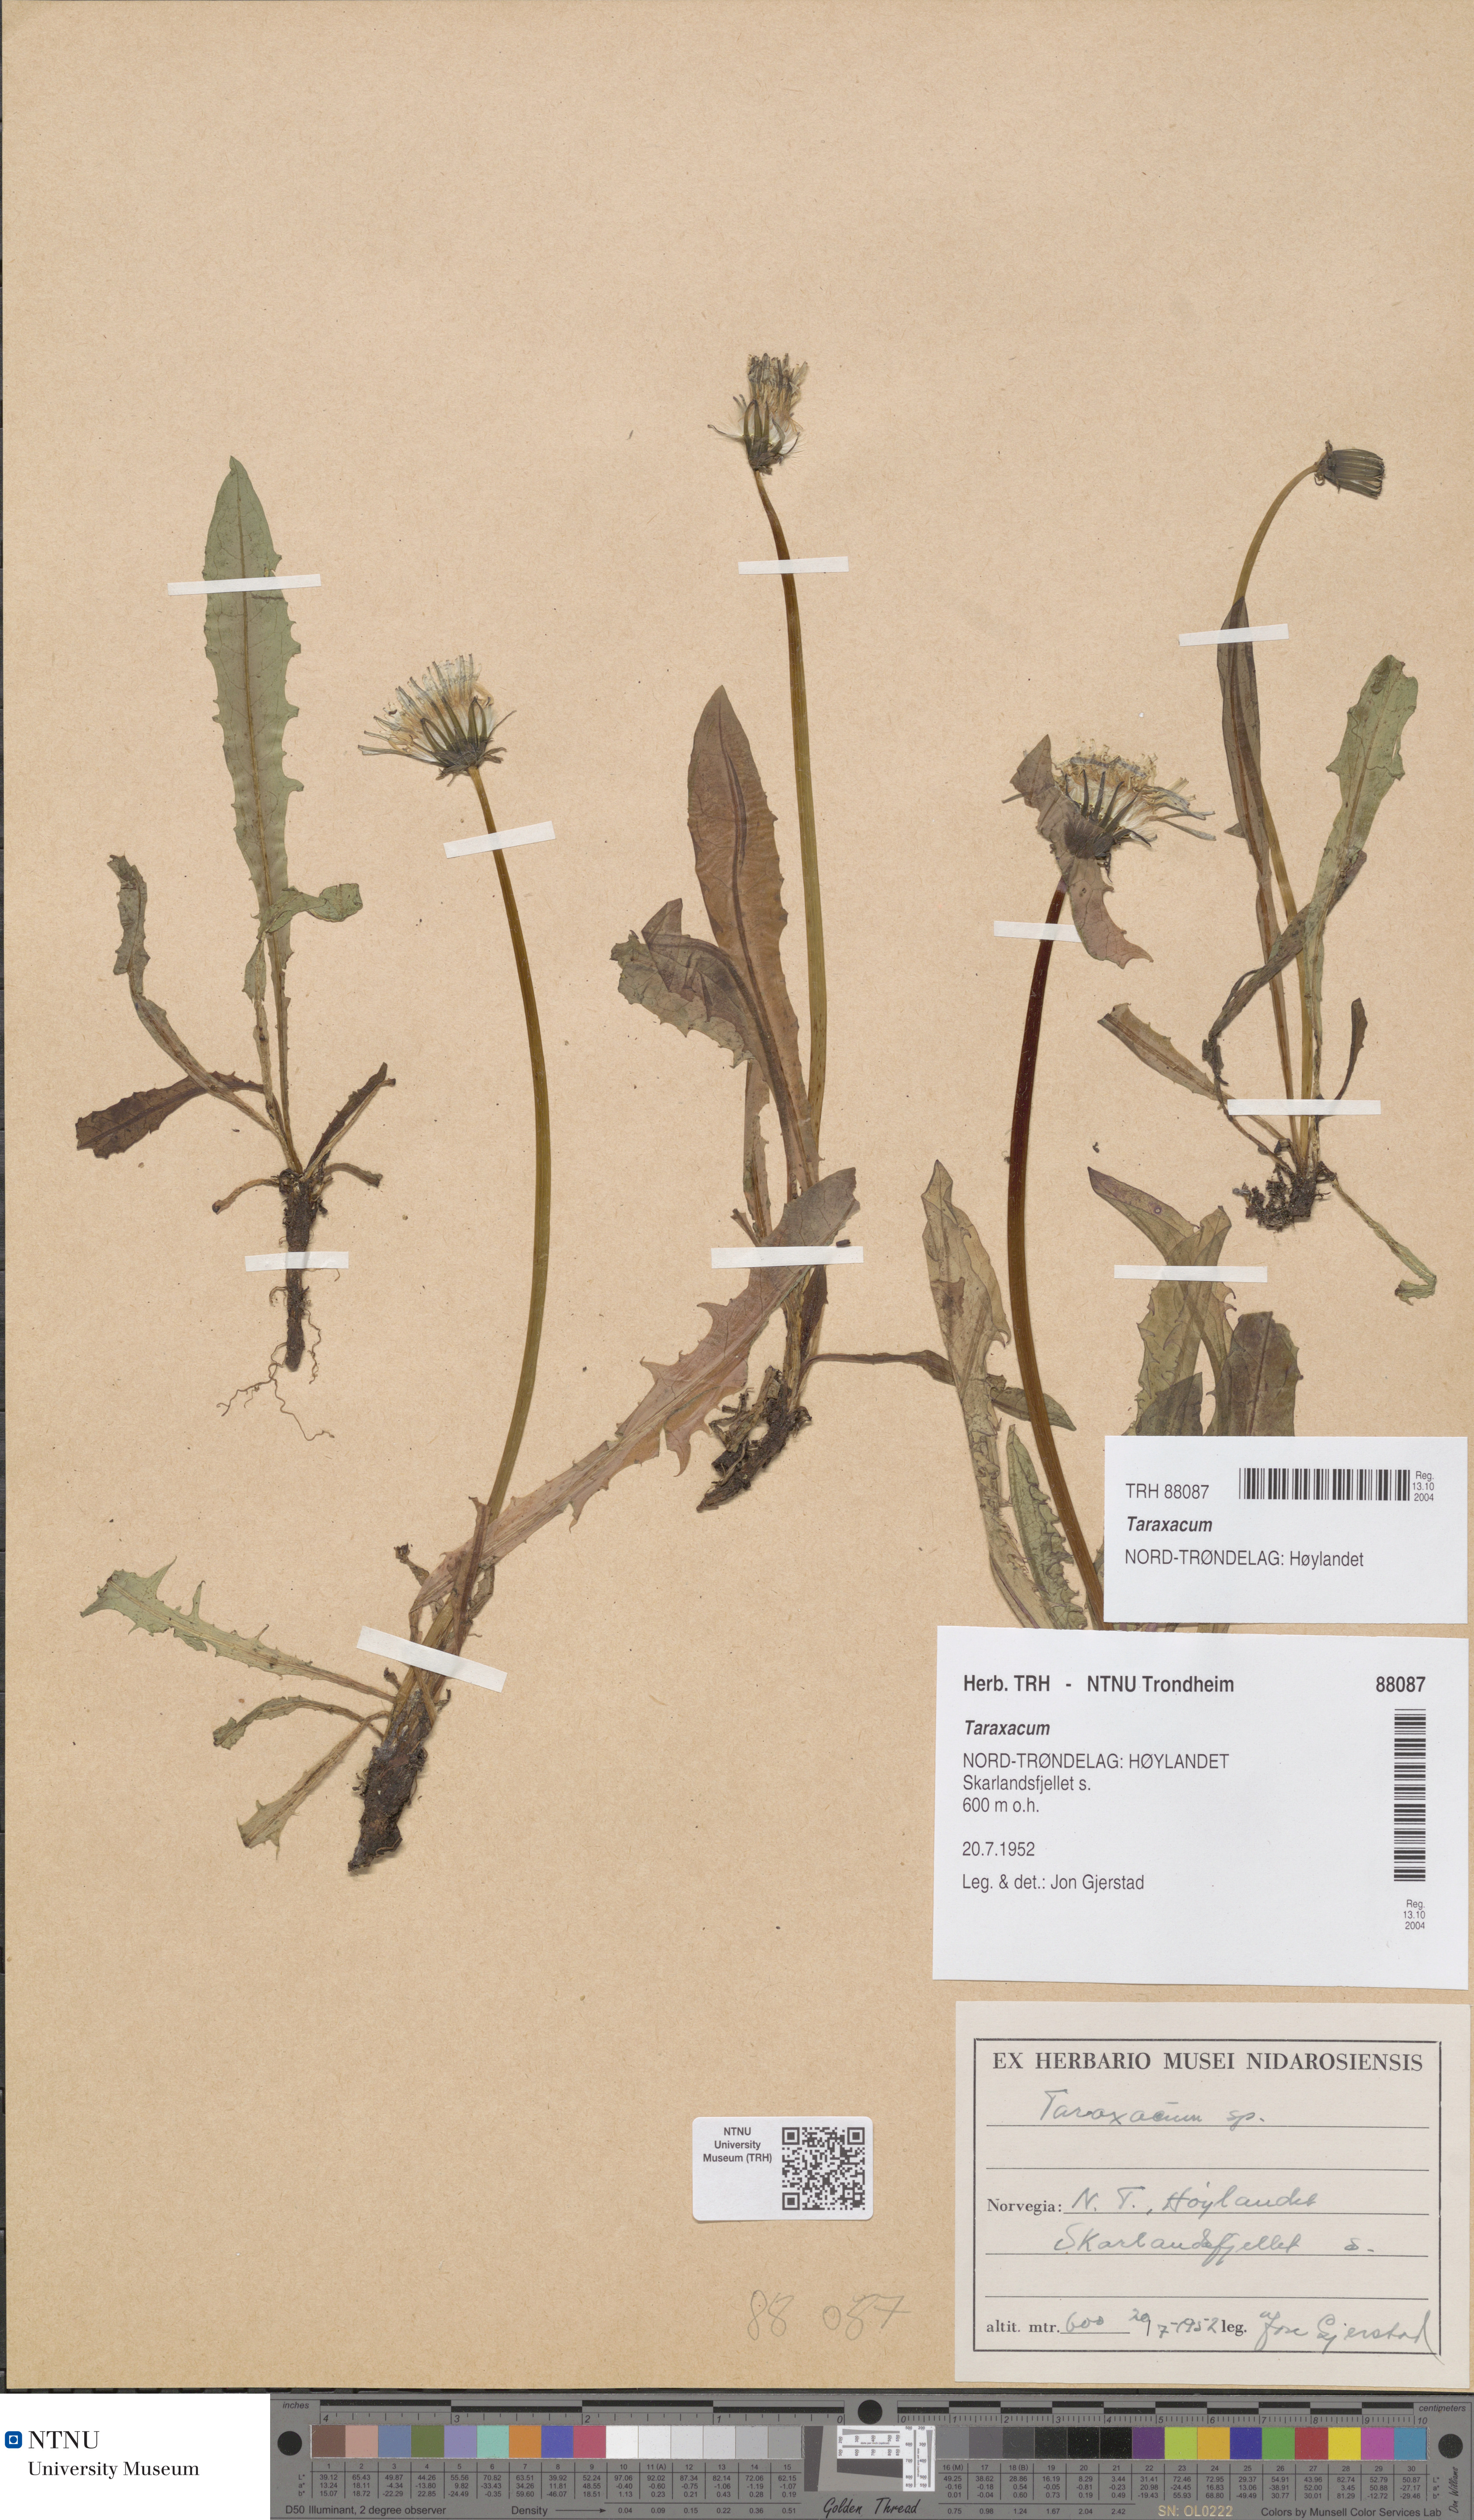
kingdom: Plantae
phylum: Tracheophyta
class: Magnoliopsida
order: Asterales
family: Asteraceae
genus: Taraxacum
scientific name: Taraxacum
